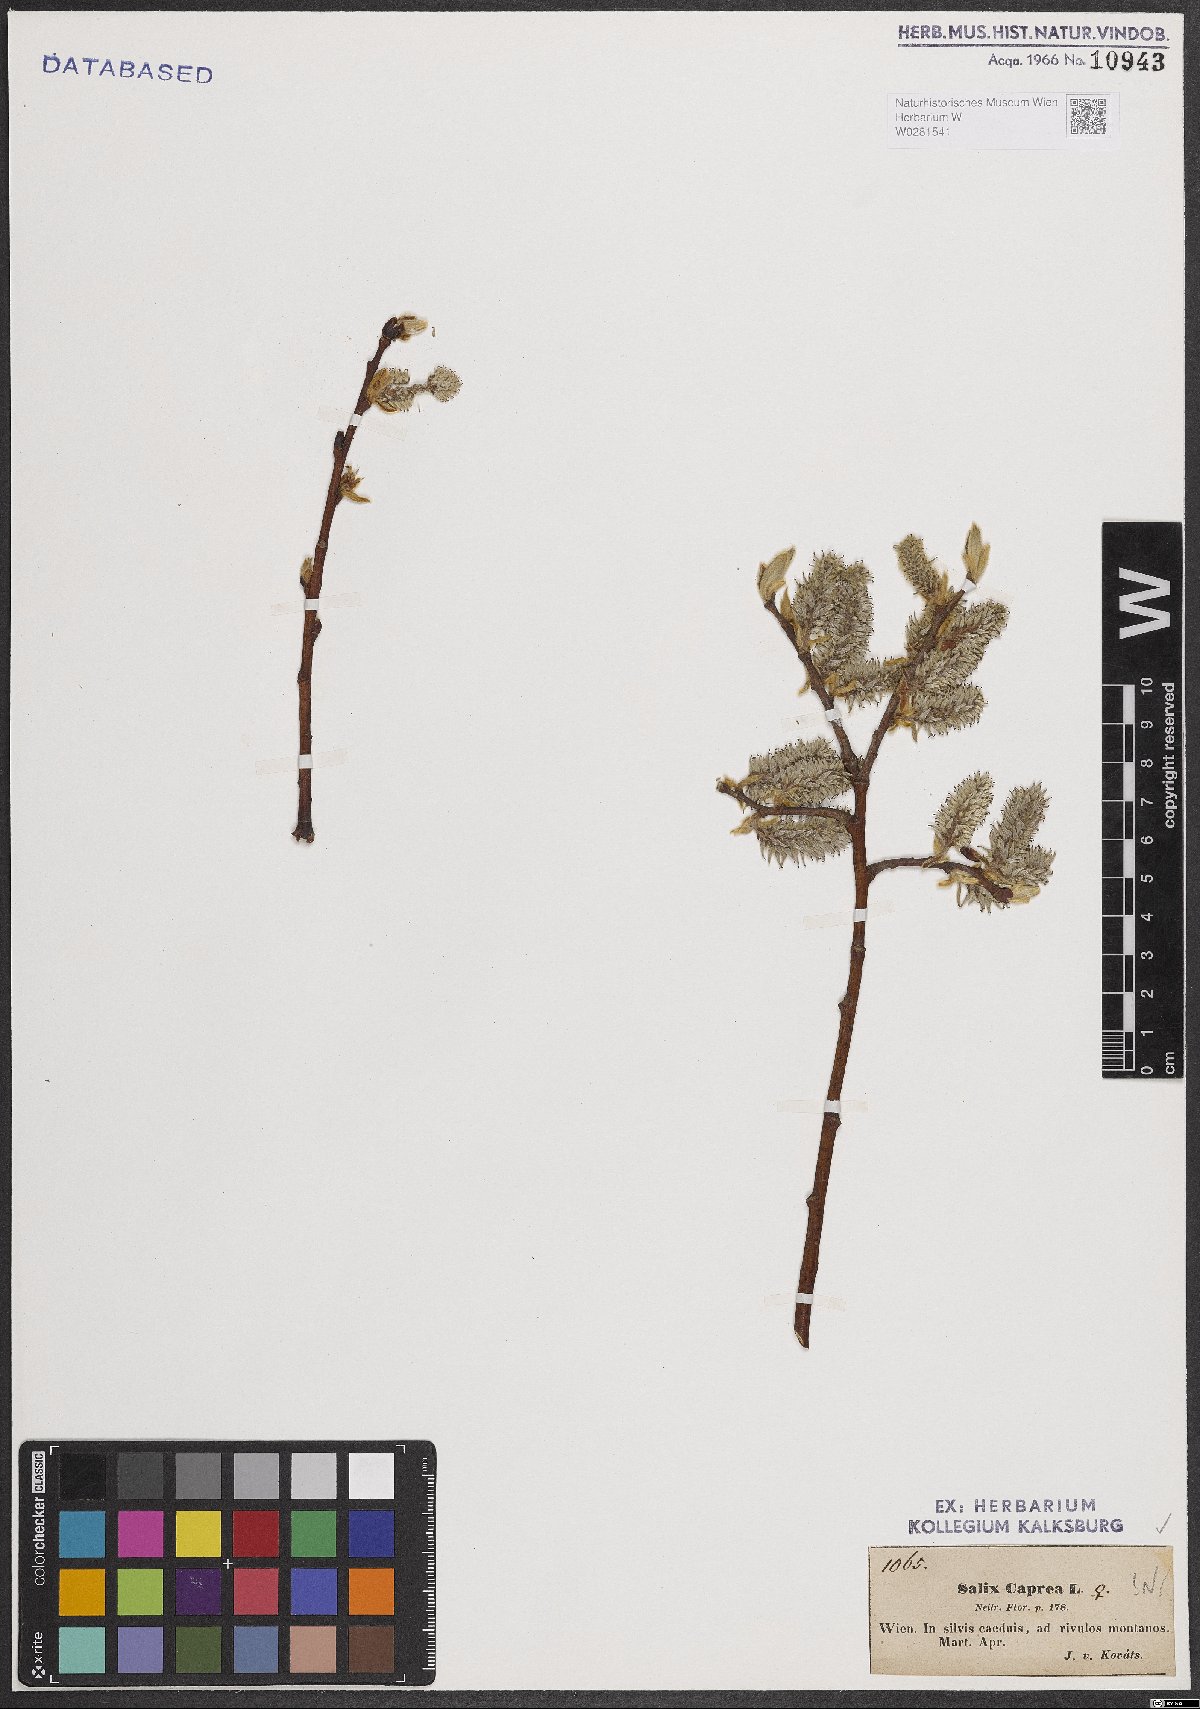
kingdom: Plantae
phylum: Tracheophyta
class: Magnoliopsida
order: Malpighiales
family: Salicaceae
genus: Salix
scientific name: Salix caprea
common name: Goat willow
